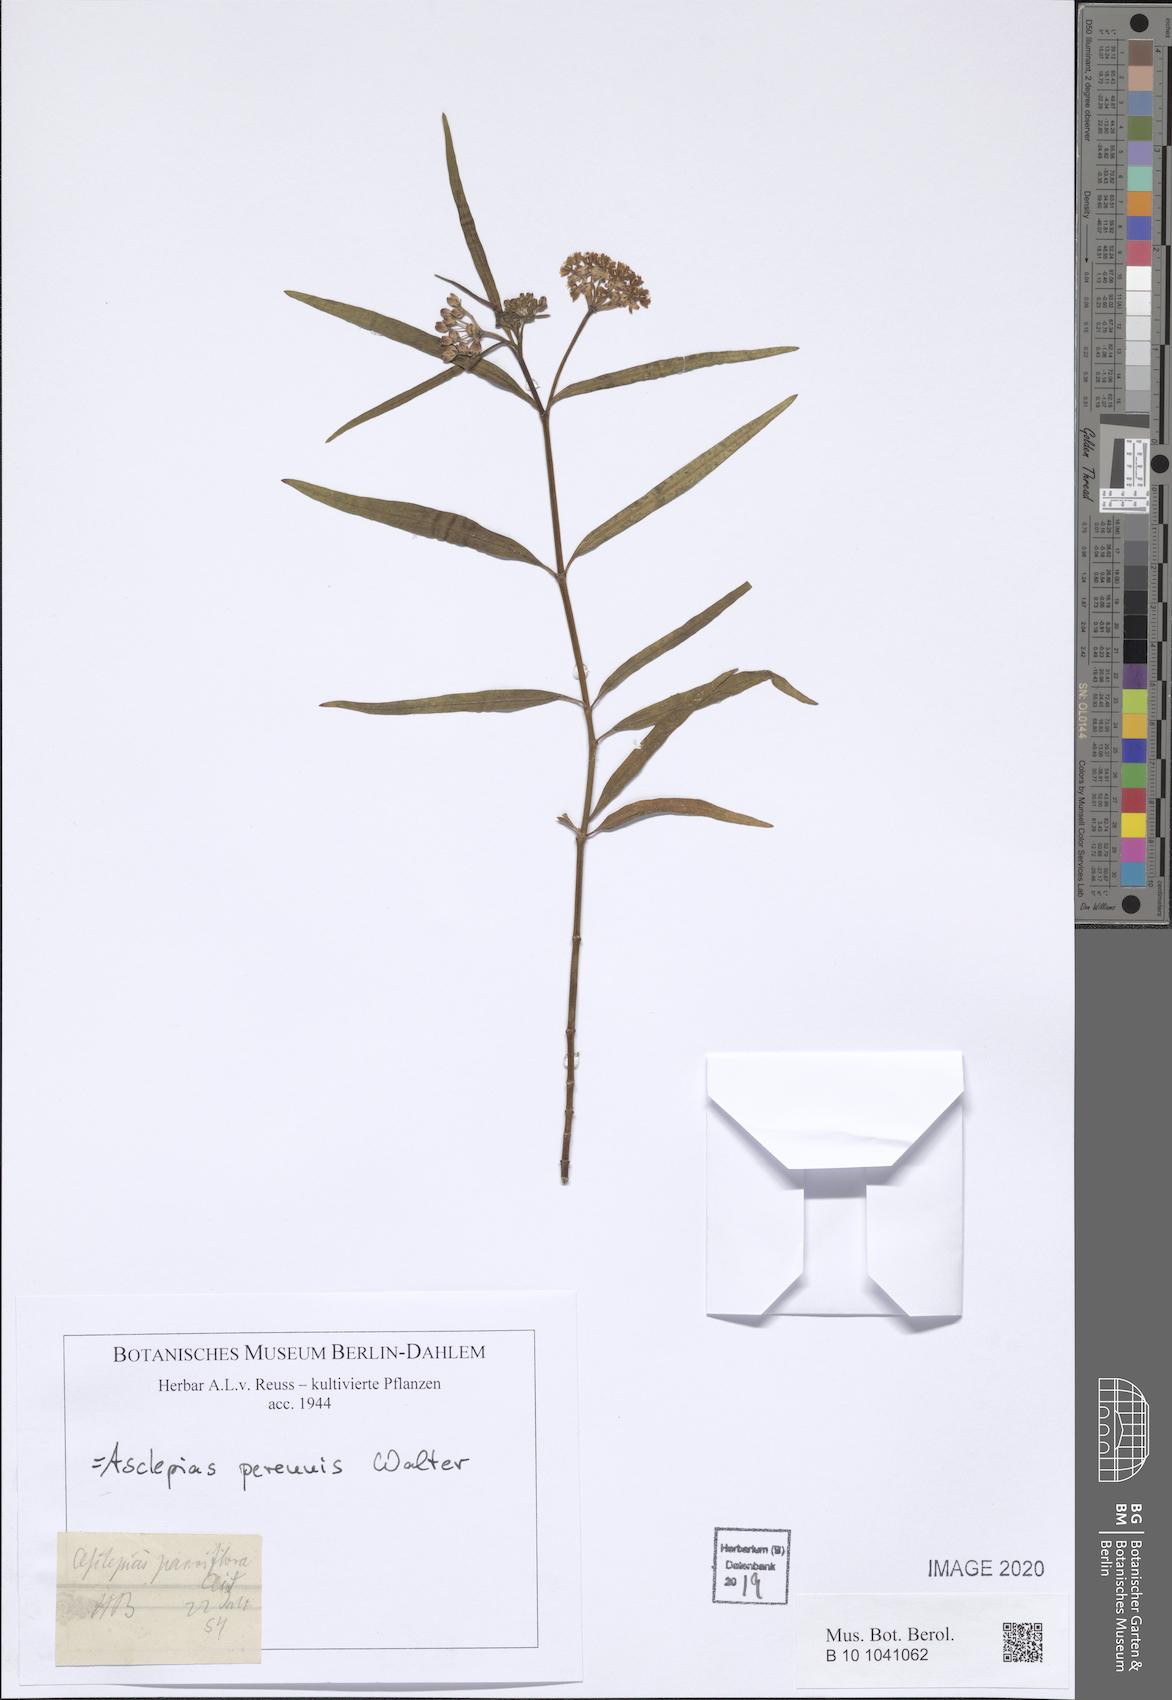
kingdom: Plantae
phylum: Tracheophyta
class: Magnoliopsida
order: Gentianales
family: Apocynaceae
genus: Asclepias
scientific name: Asclepias perennis
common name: Smooth-seed milkweed
